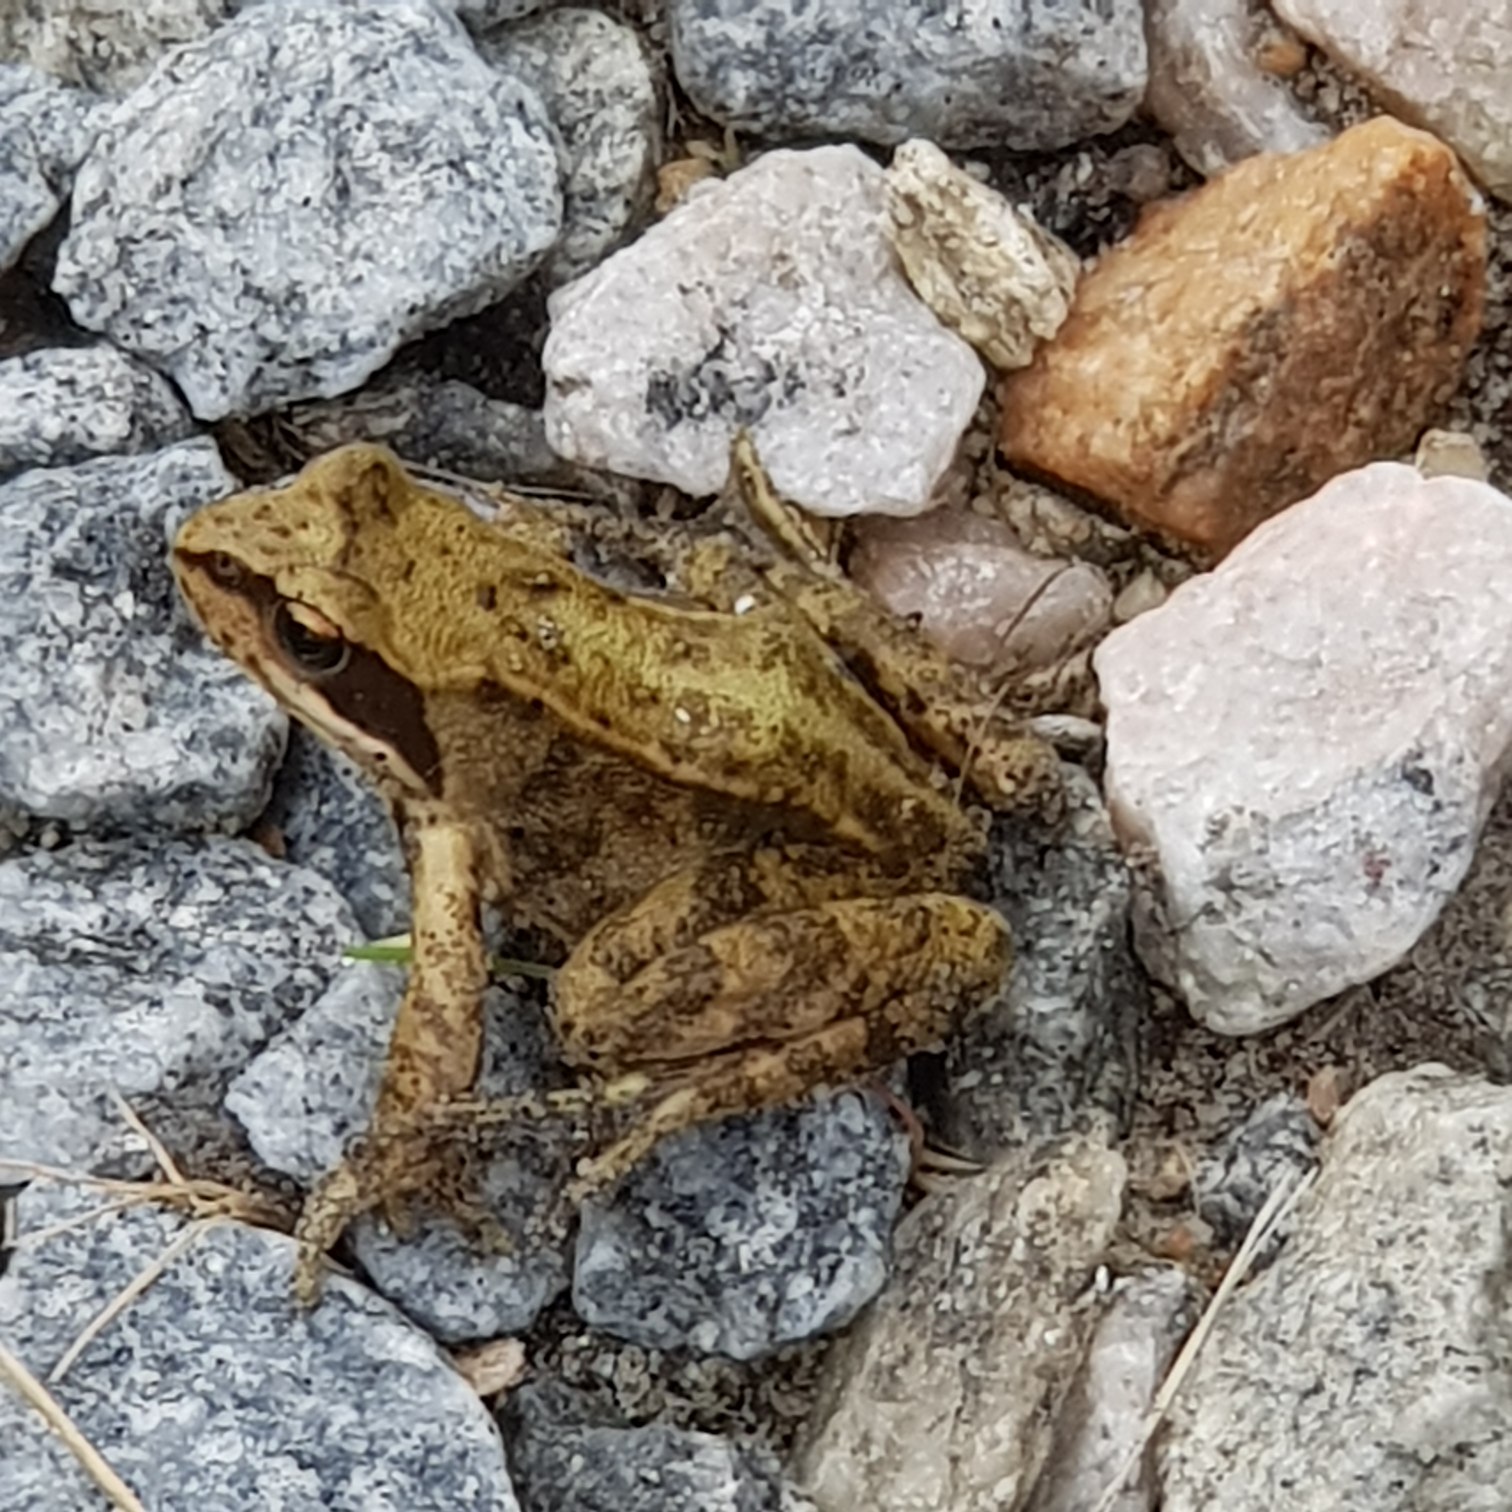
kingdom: Animalia
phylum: Chordata
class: Amphibia
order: Anura
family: Ranidae
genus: Rana
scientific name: Rana temporaria
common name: Butsnudet frø
